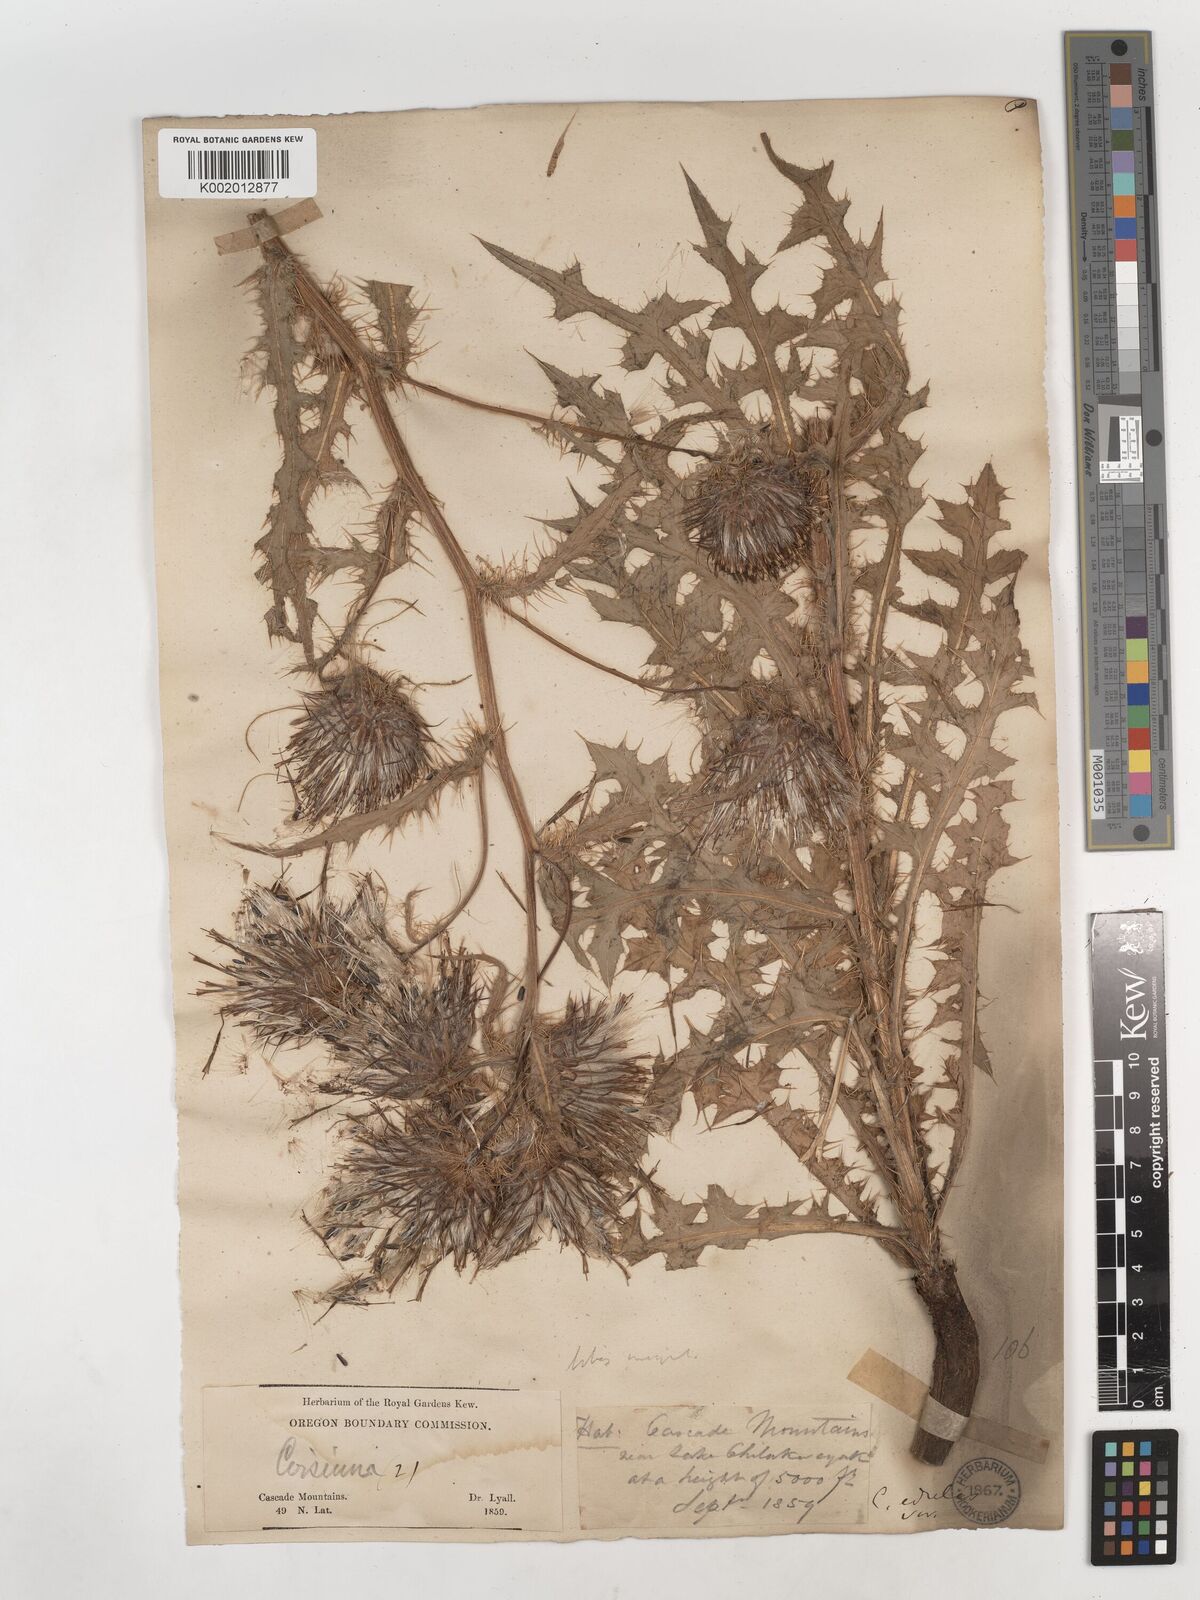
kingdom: Plantae
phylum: Tracheophyta
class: Magnoliopsida
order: Asterales
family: Asteraceae
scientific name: Asteraceae
